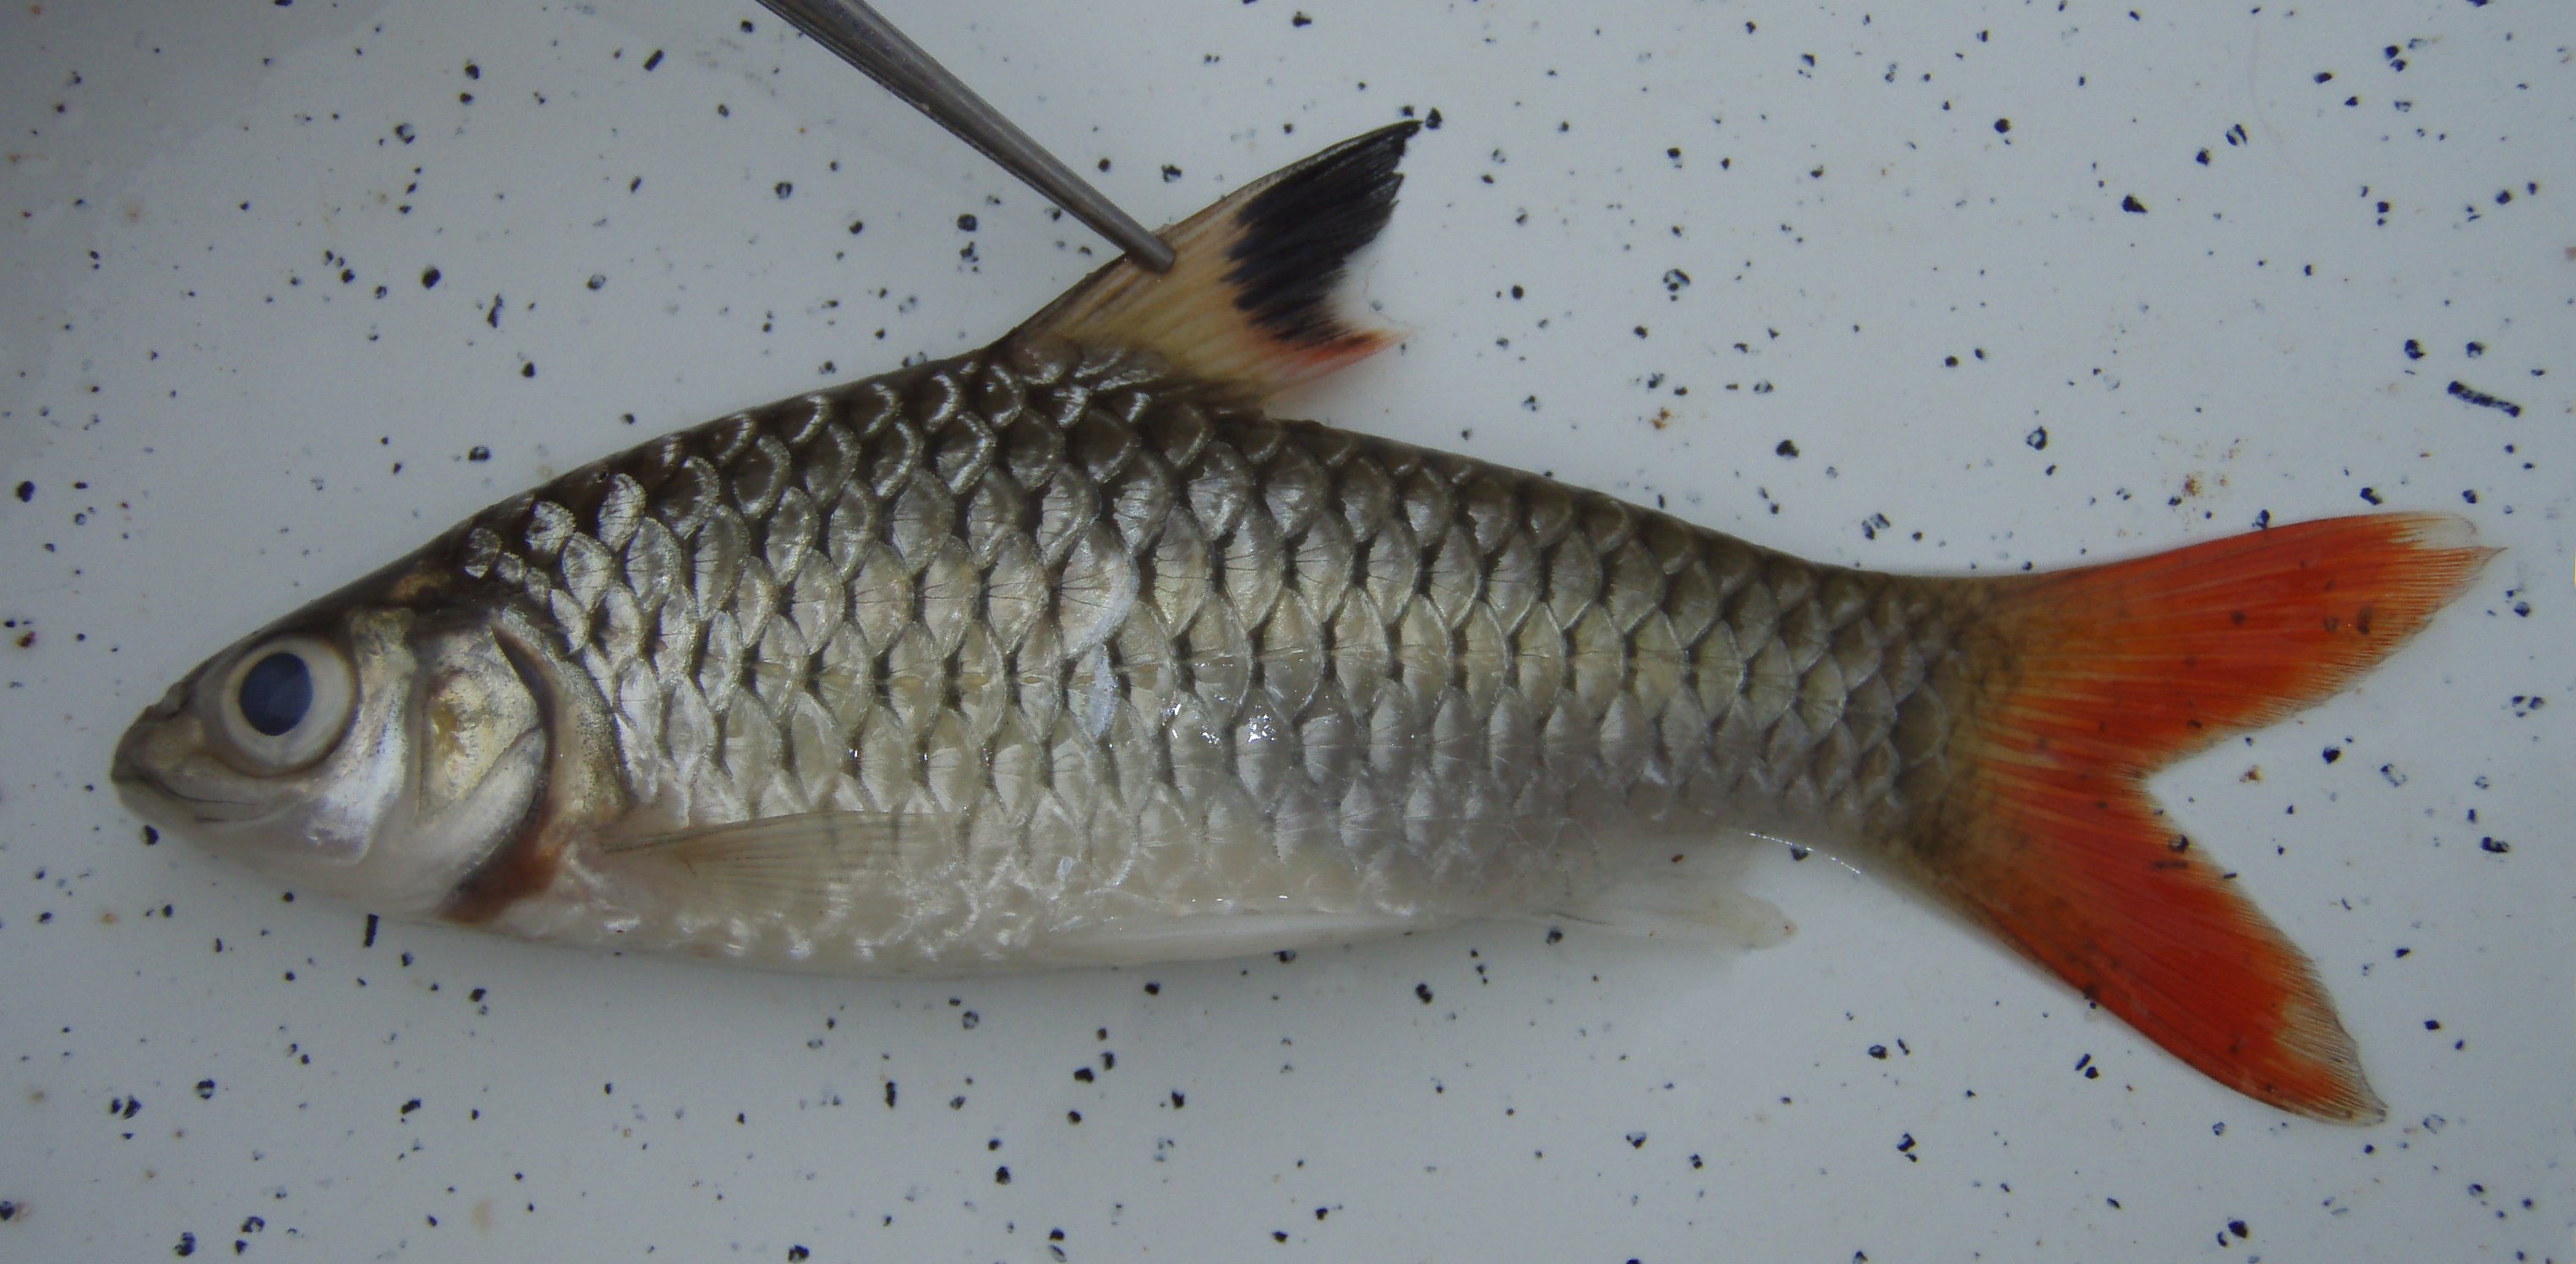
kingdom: Animalia
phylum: Chordata
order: Cypriniformes
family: Cyprinidae
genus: Enteromius
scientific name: Enteromius holotaenia
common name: Spotscale barb
